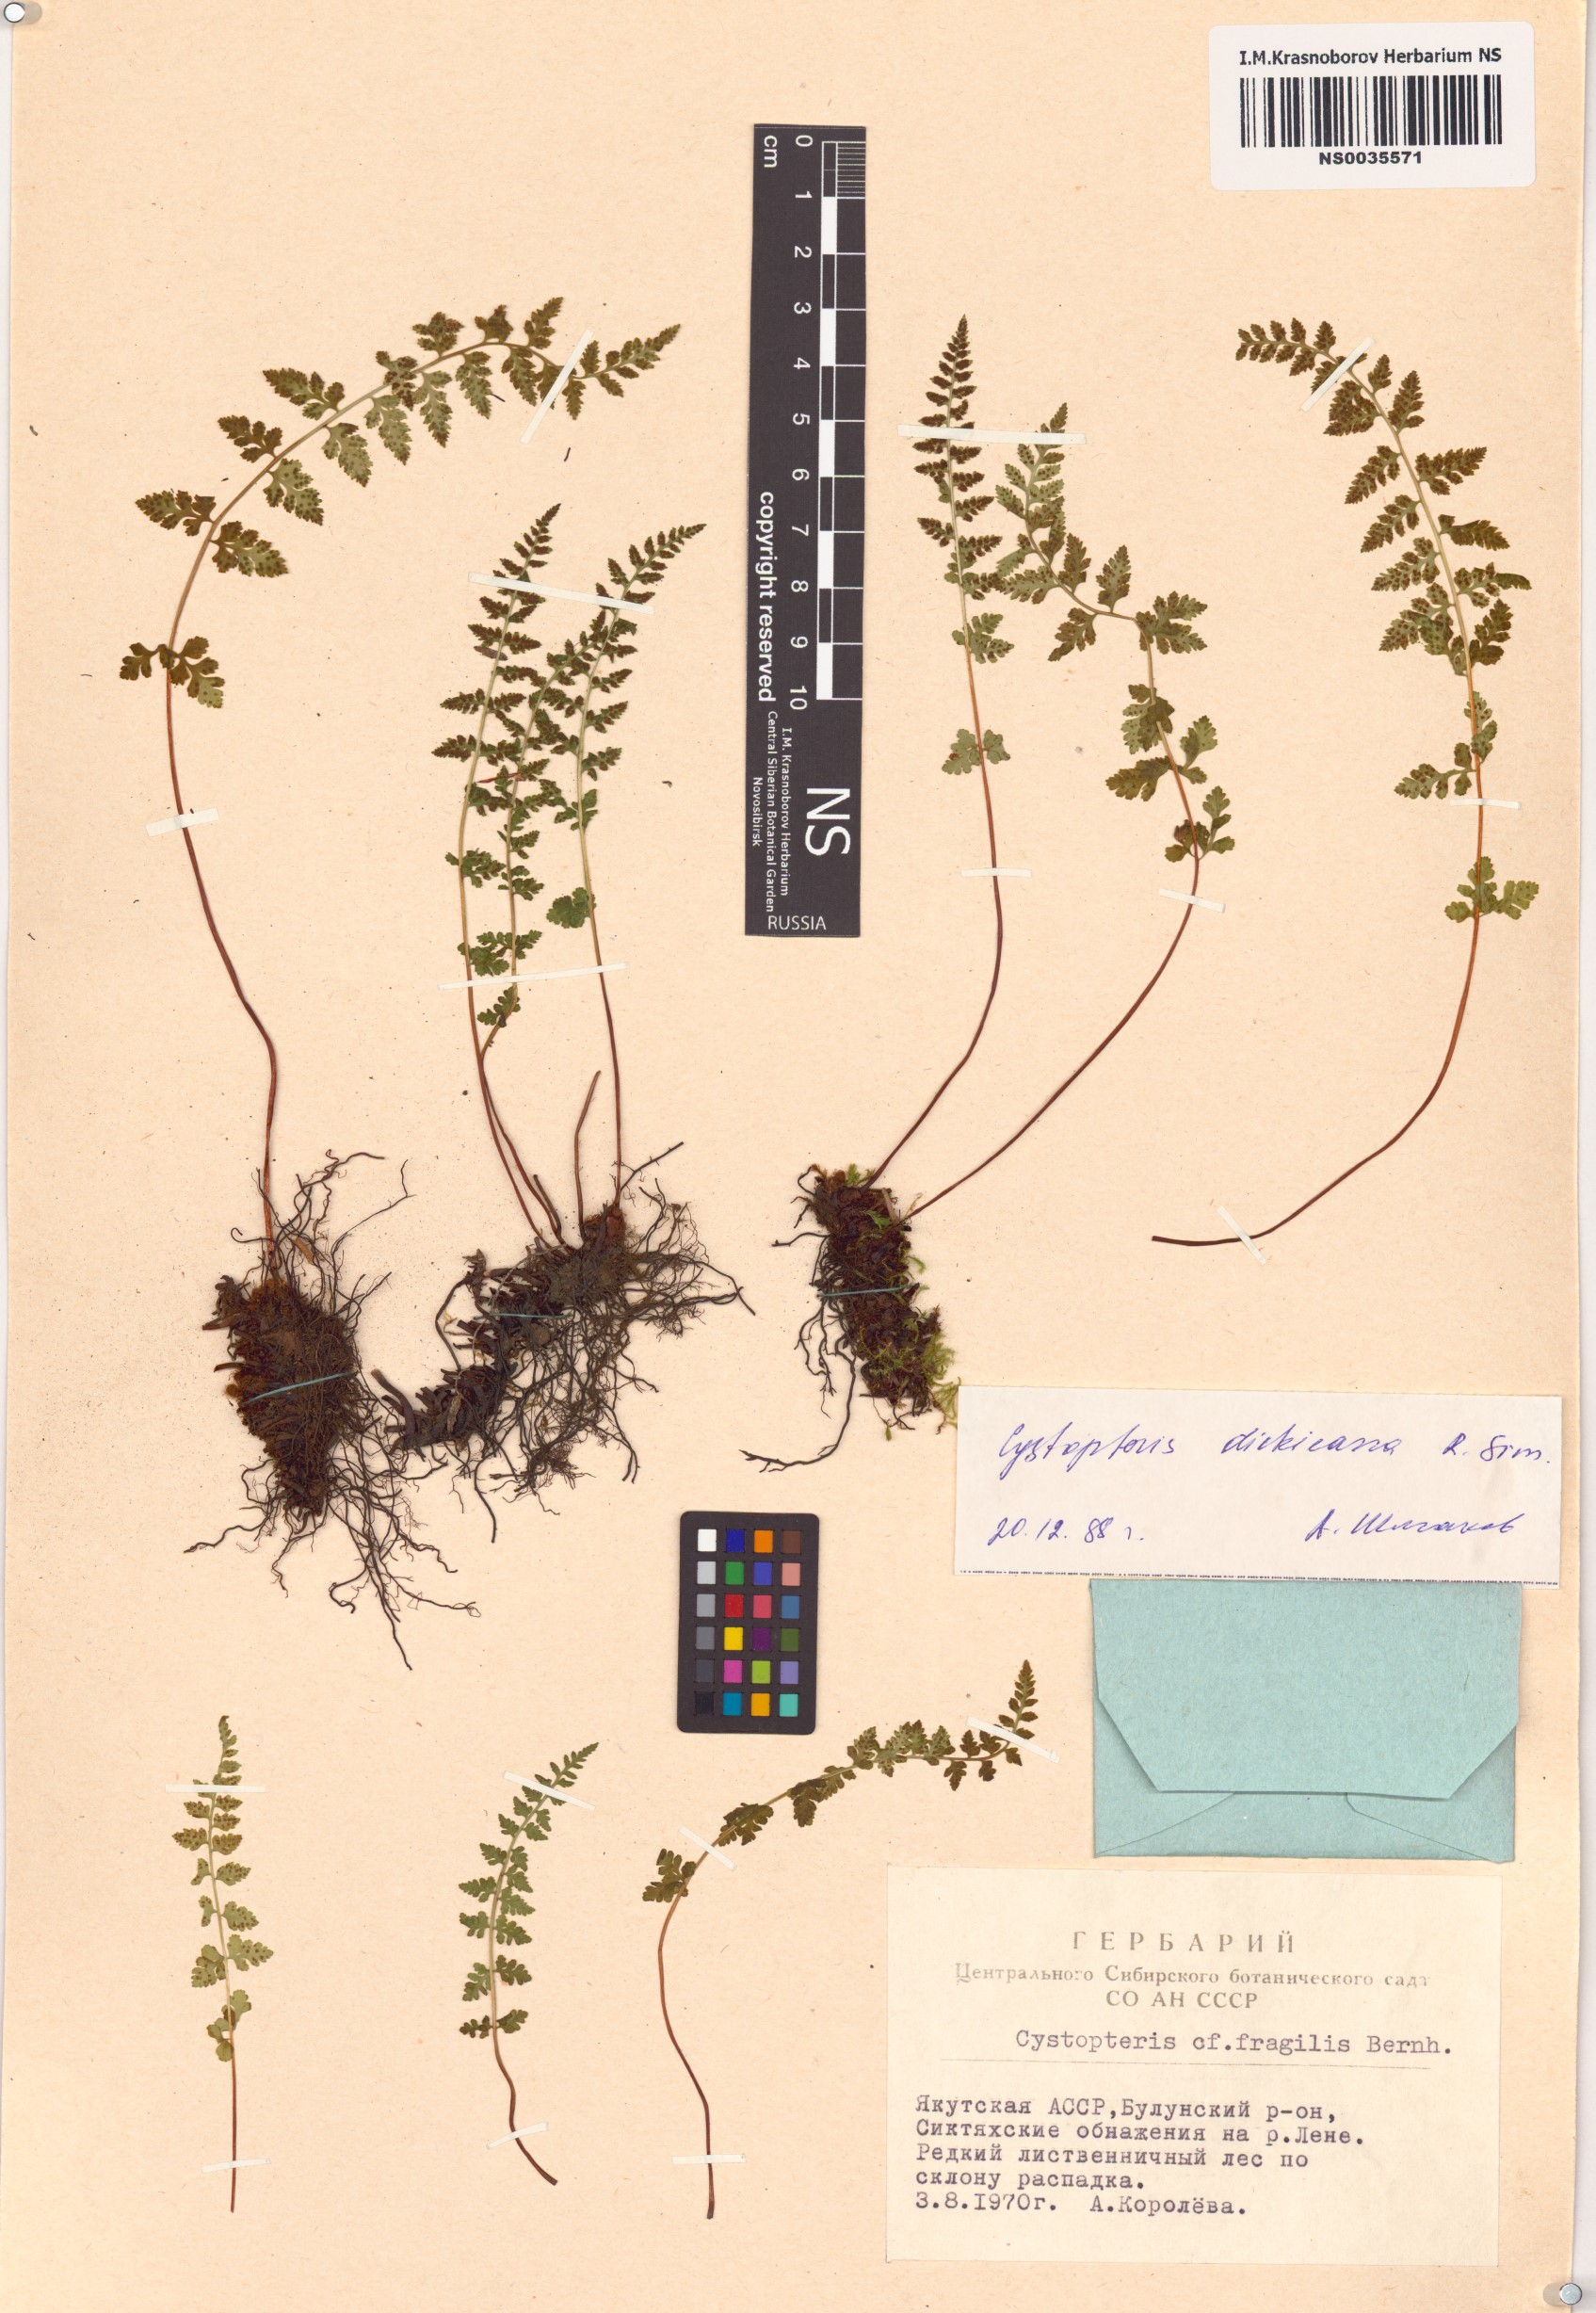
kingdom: Plantae
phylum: Tracheophyta
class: Polypodiopsida
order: Polypodiales
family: Cystopteridaceae
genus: Cystopteris
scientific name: Cystopteris dickieana
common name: Dickie's bladder-fern
